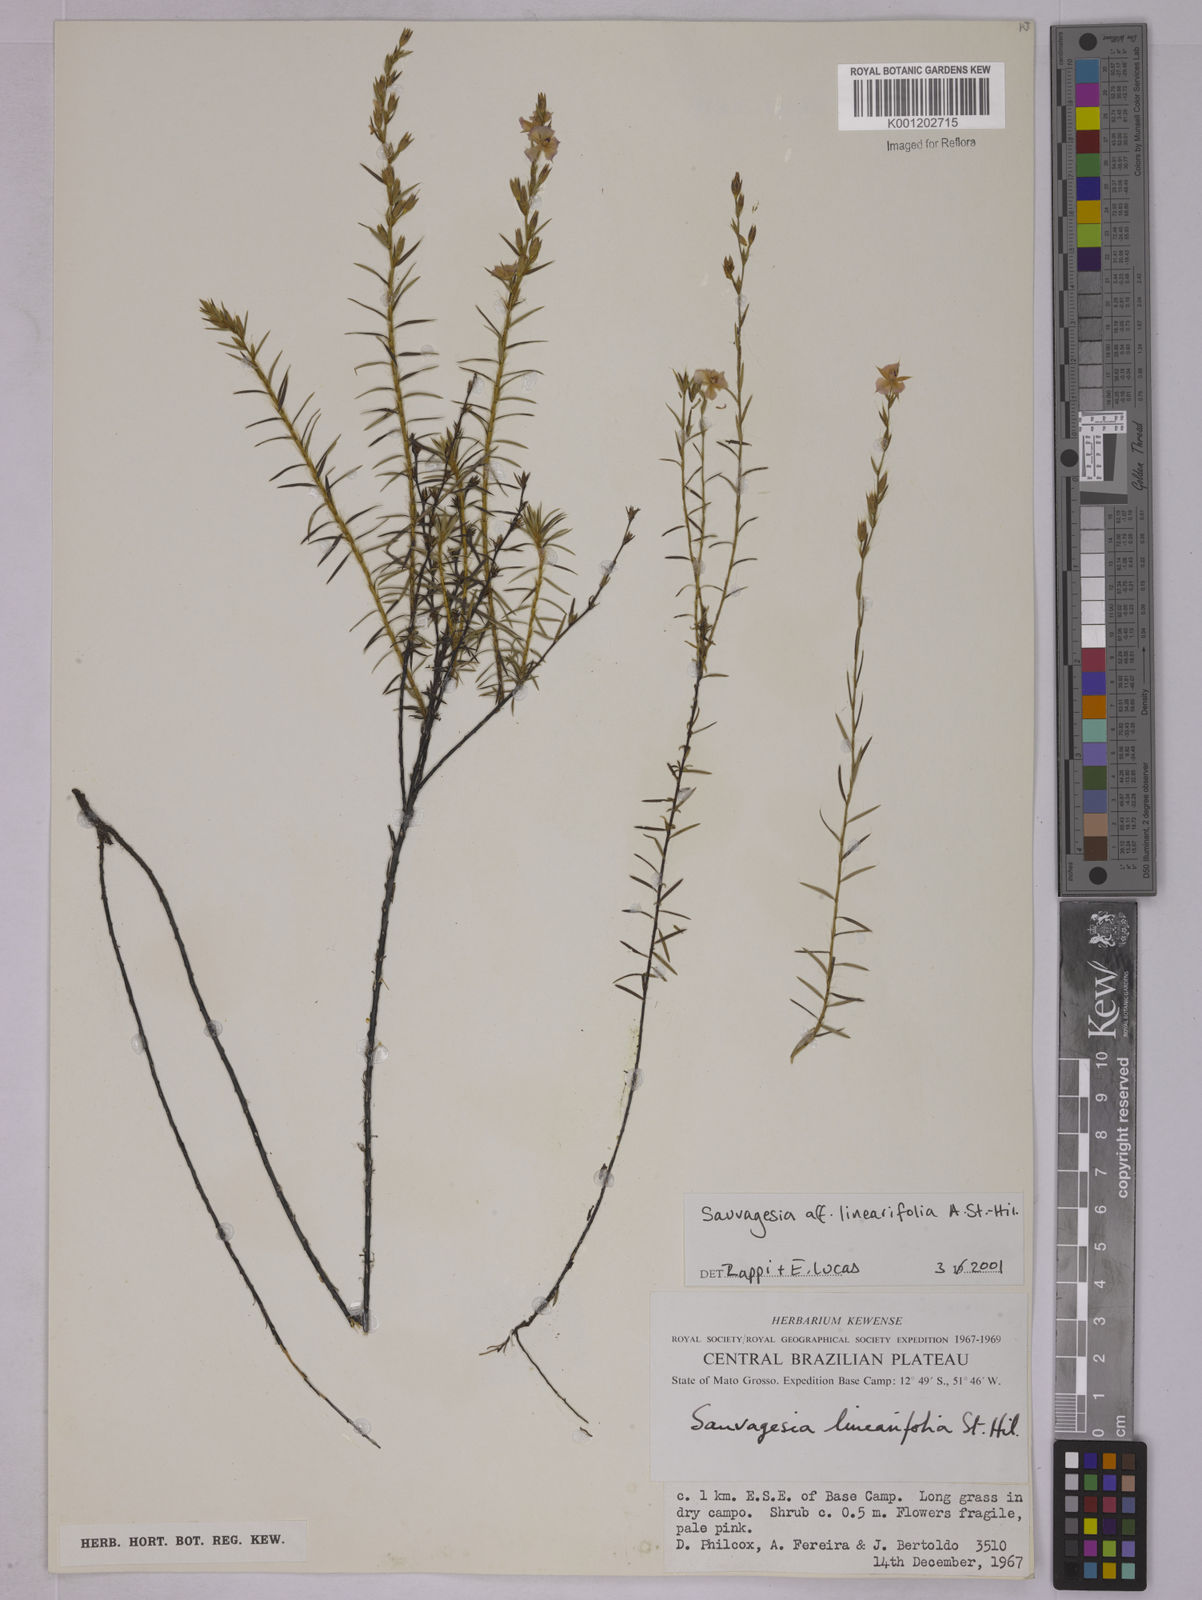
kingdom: Plantae
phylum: Tracheophyta
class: Magnoliopsida
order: Malpighiales
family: Ochnaceae
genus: Sauvagesia
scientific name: Sauvagesia linearifolia
